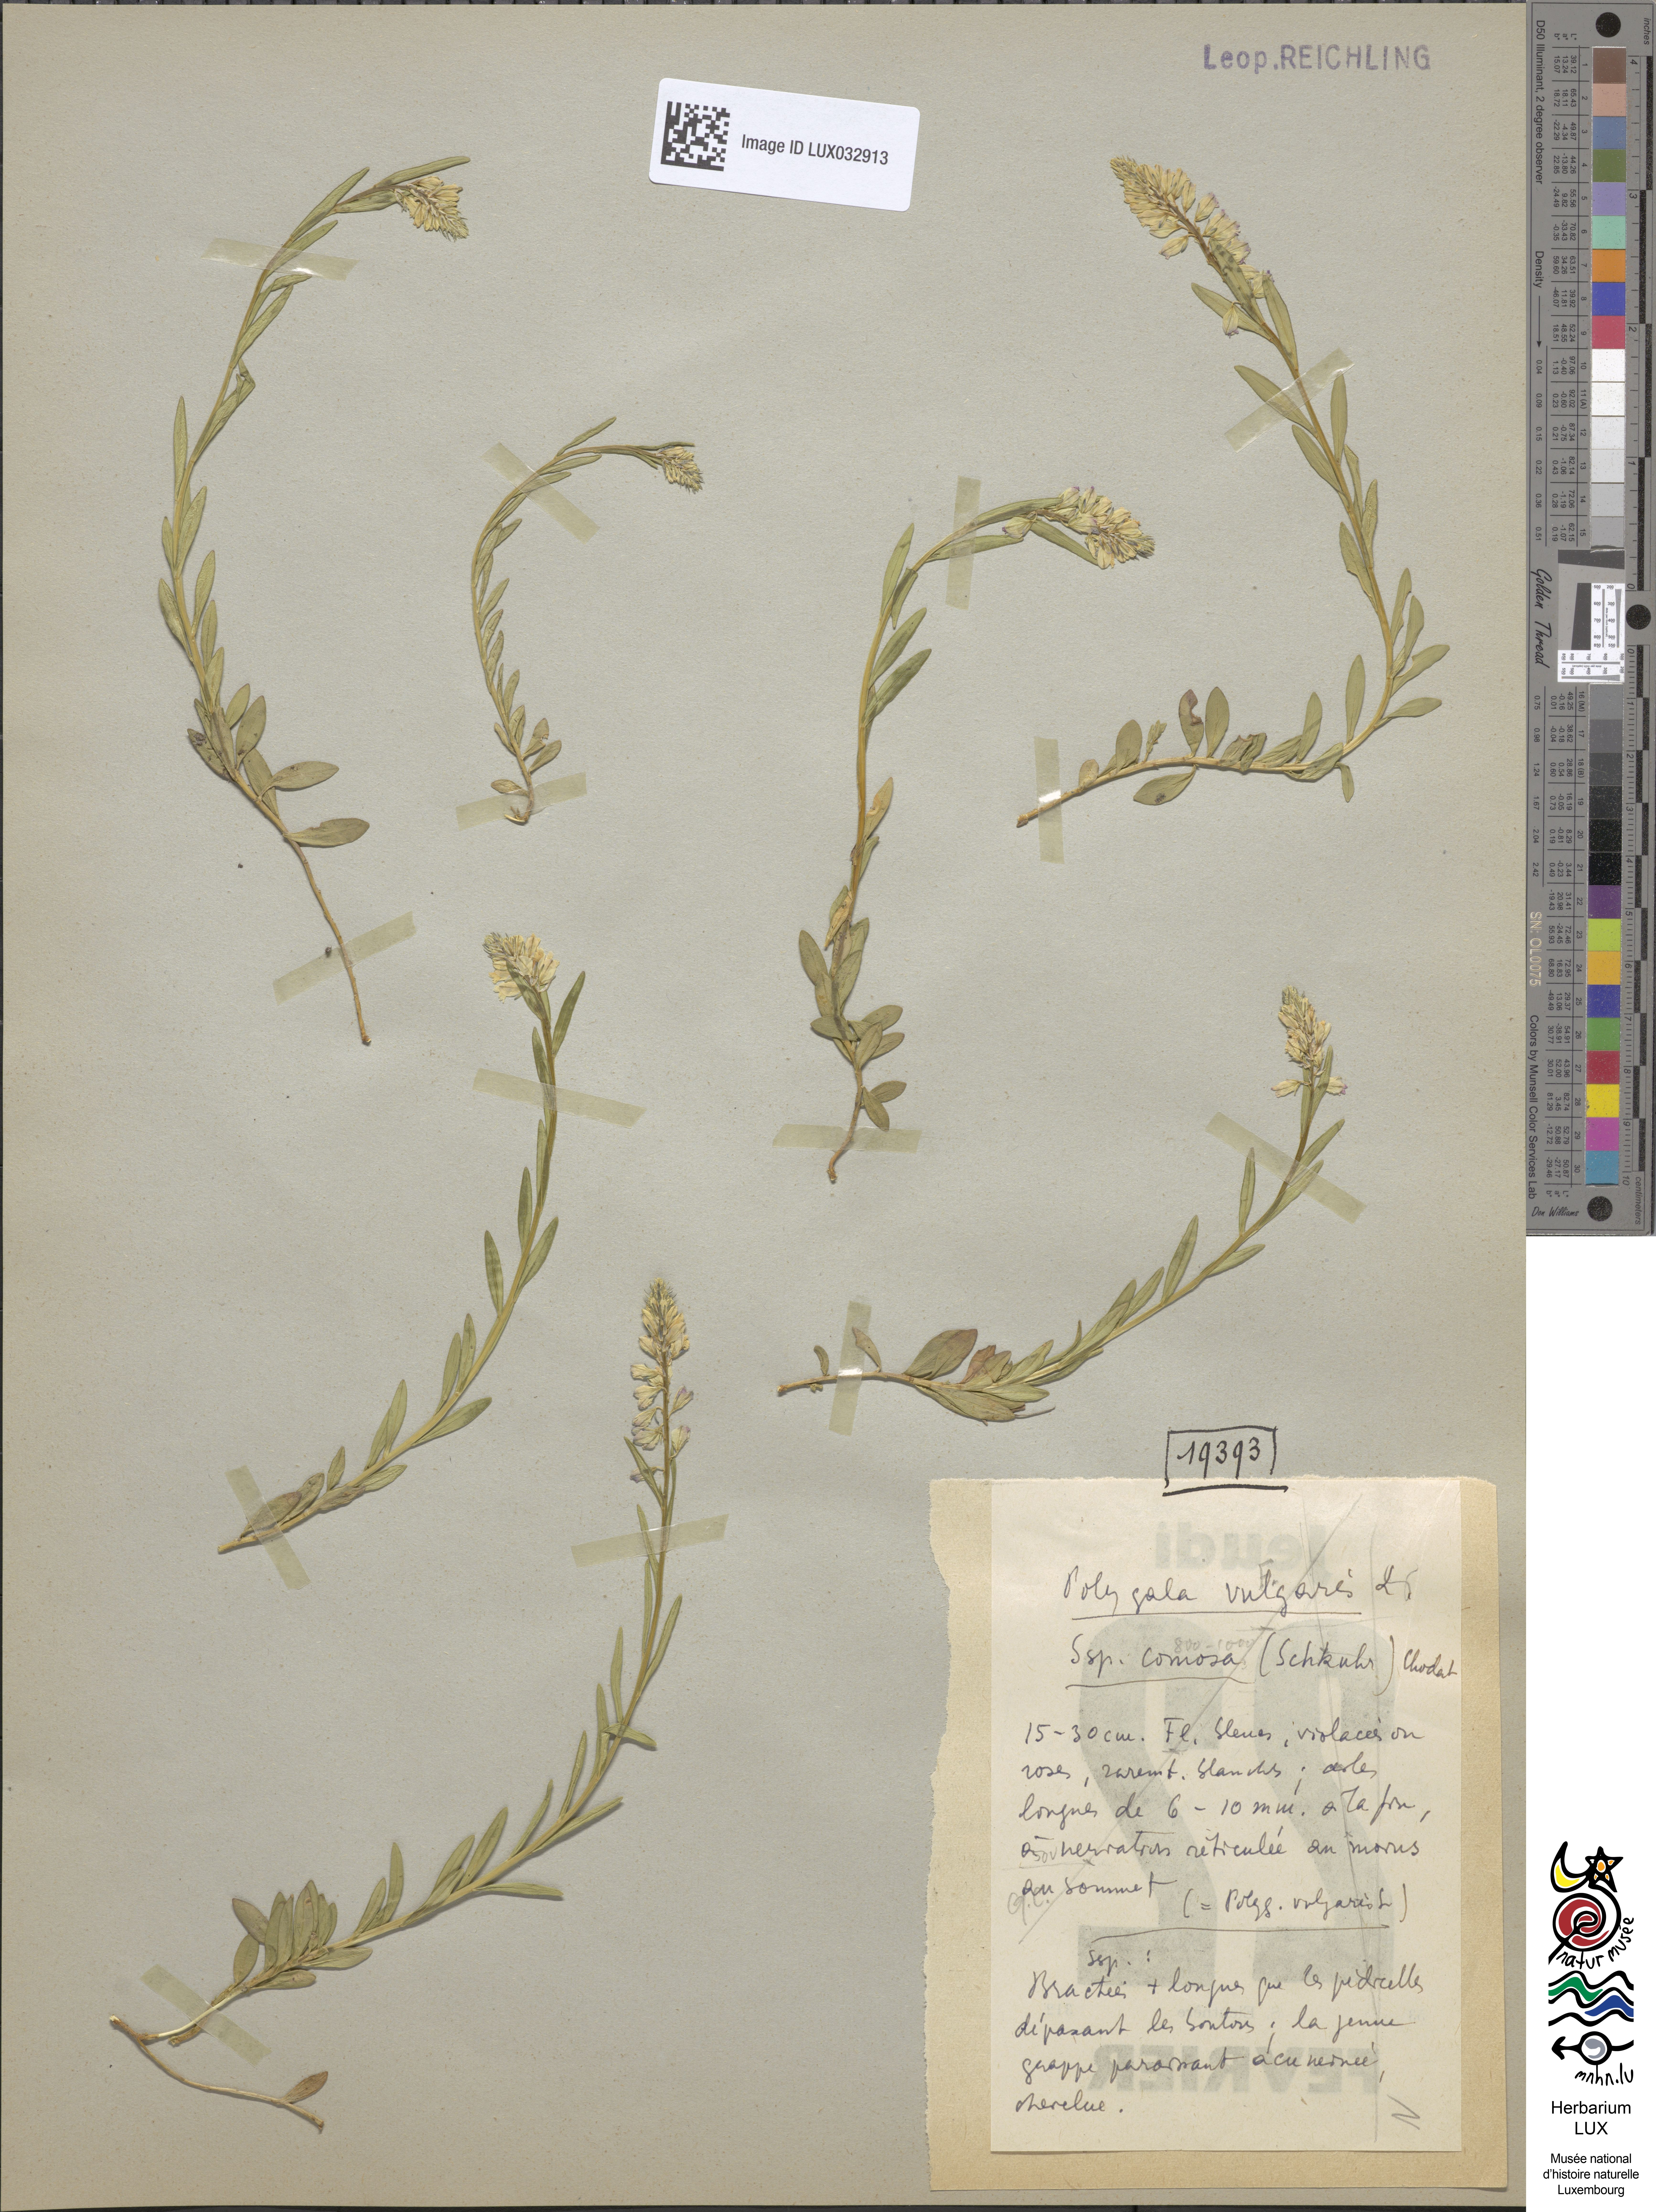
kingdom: Plantae
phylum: Tracheophyta
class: Magnoliopsida
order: Fabales
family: Polygalaceae
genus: Polygala
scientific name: Polygala comosa
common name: Tufted milkwort
